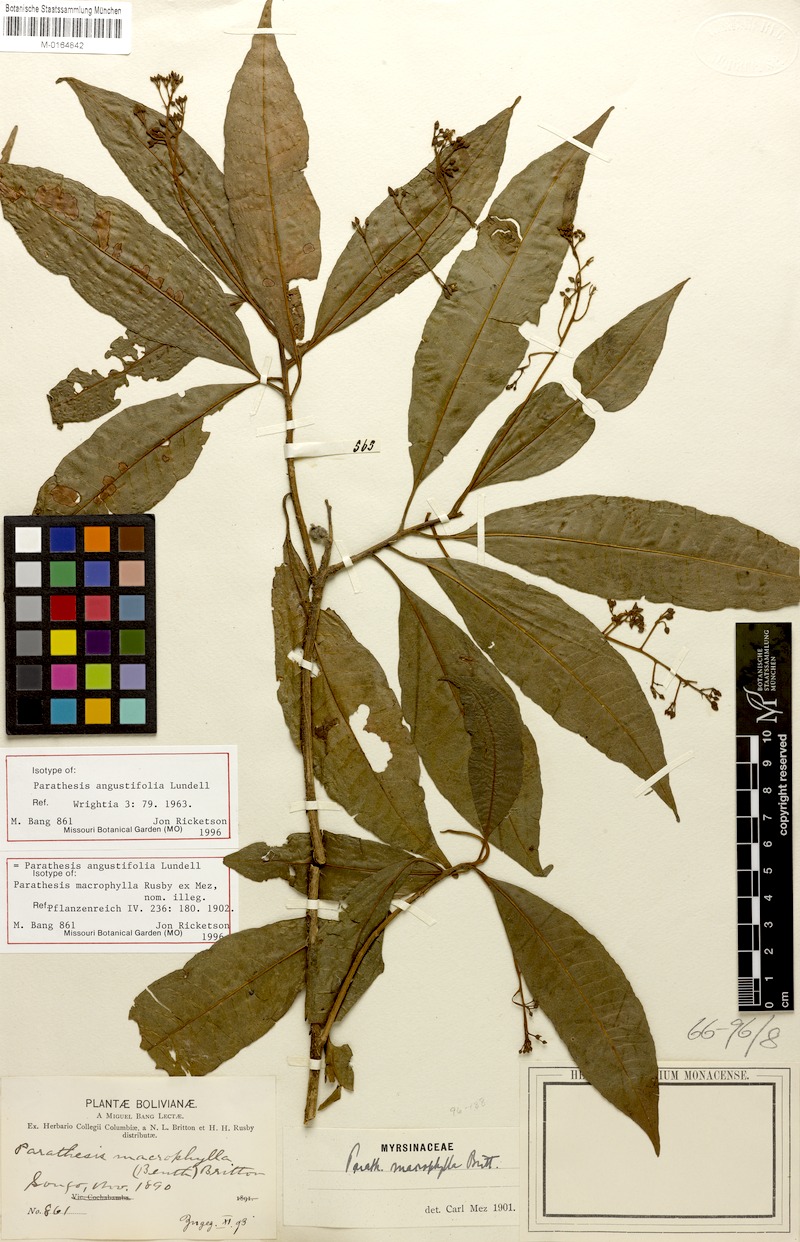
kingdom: Plantae
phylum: Tracheophyta
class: Magnoliopsida
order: Ericales
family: Primulaceae
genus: Parathesis
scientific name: Parathesis angustifolia
